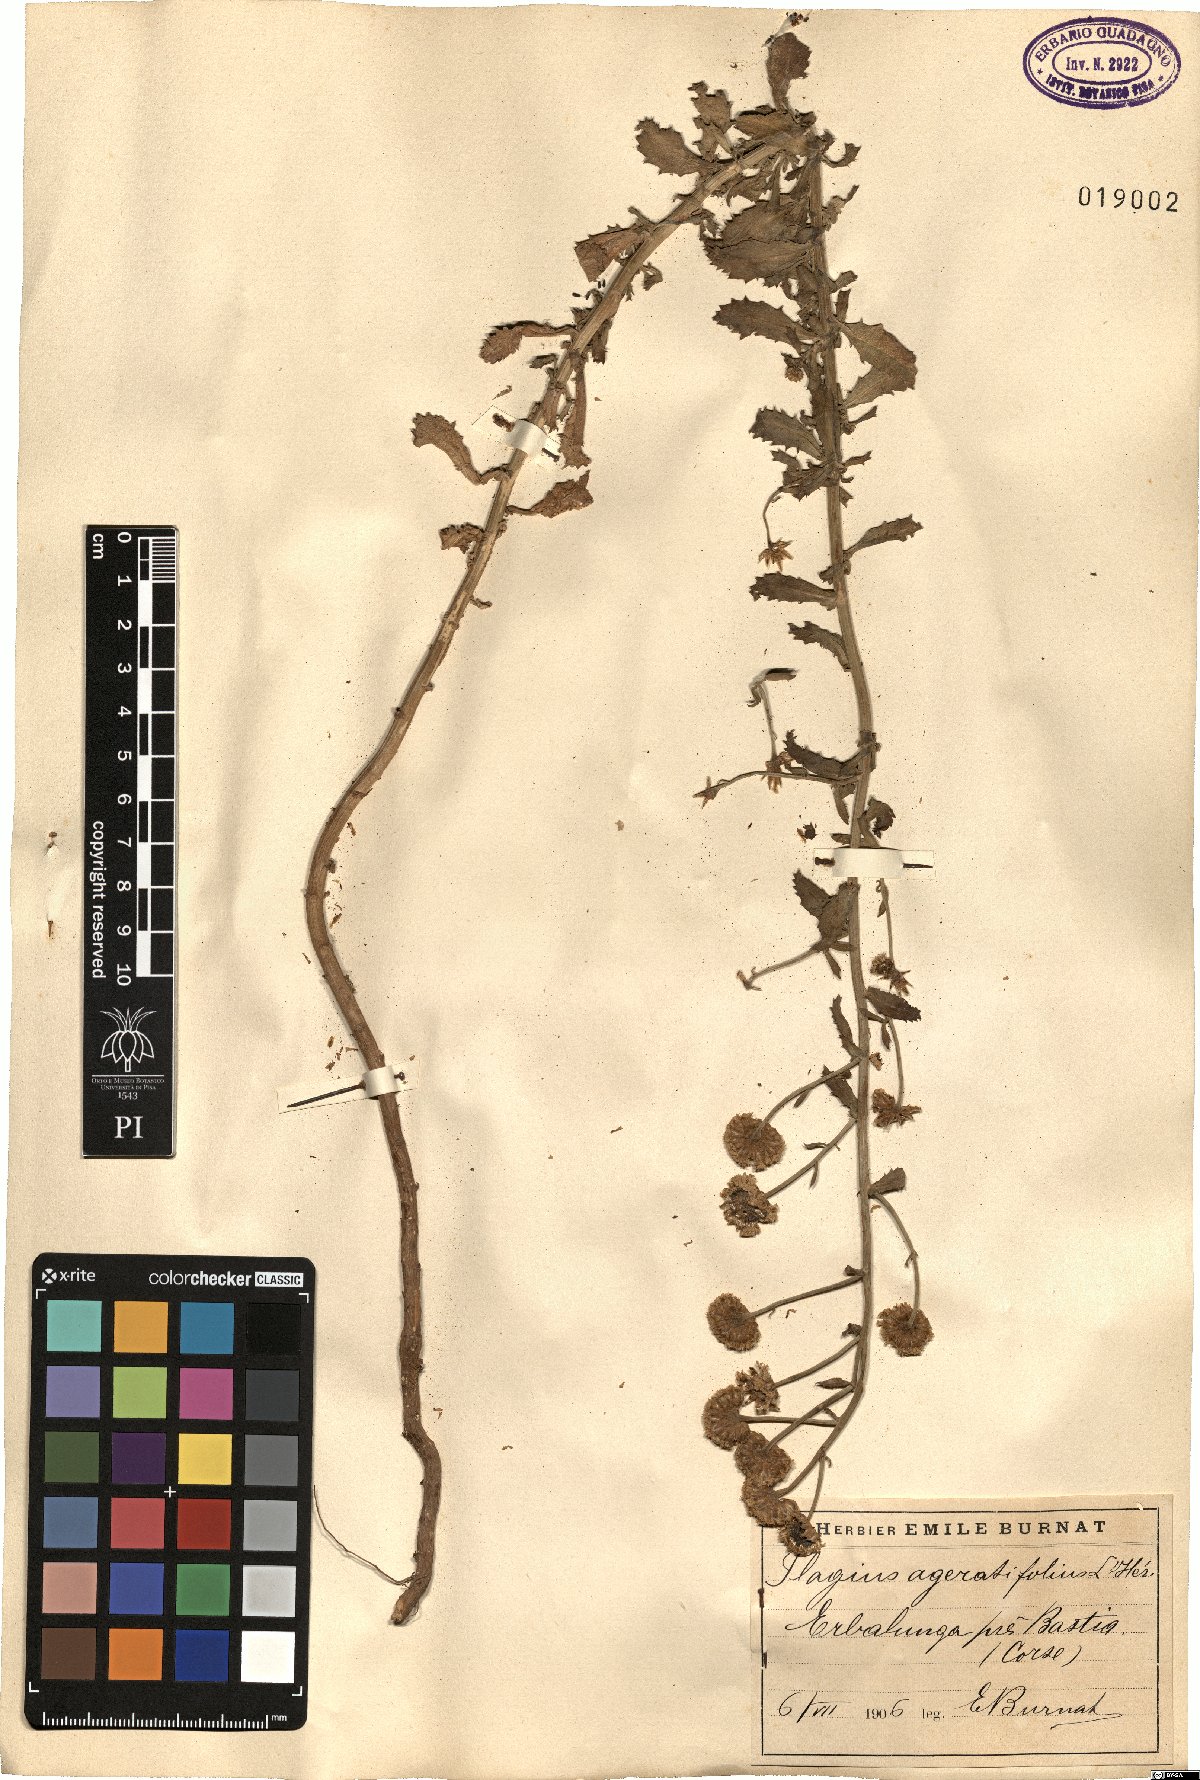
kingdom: Plantae
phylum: Tracheophyta
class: Magnoliopsida
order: Asterales
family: Asteraceae
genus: Plagius
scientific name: Plagius flosculosus
